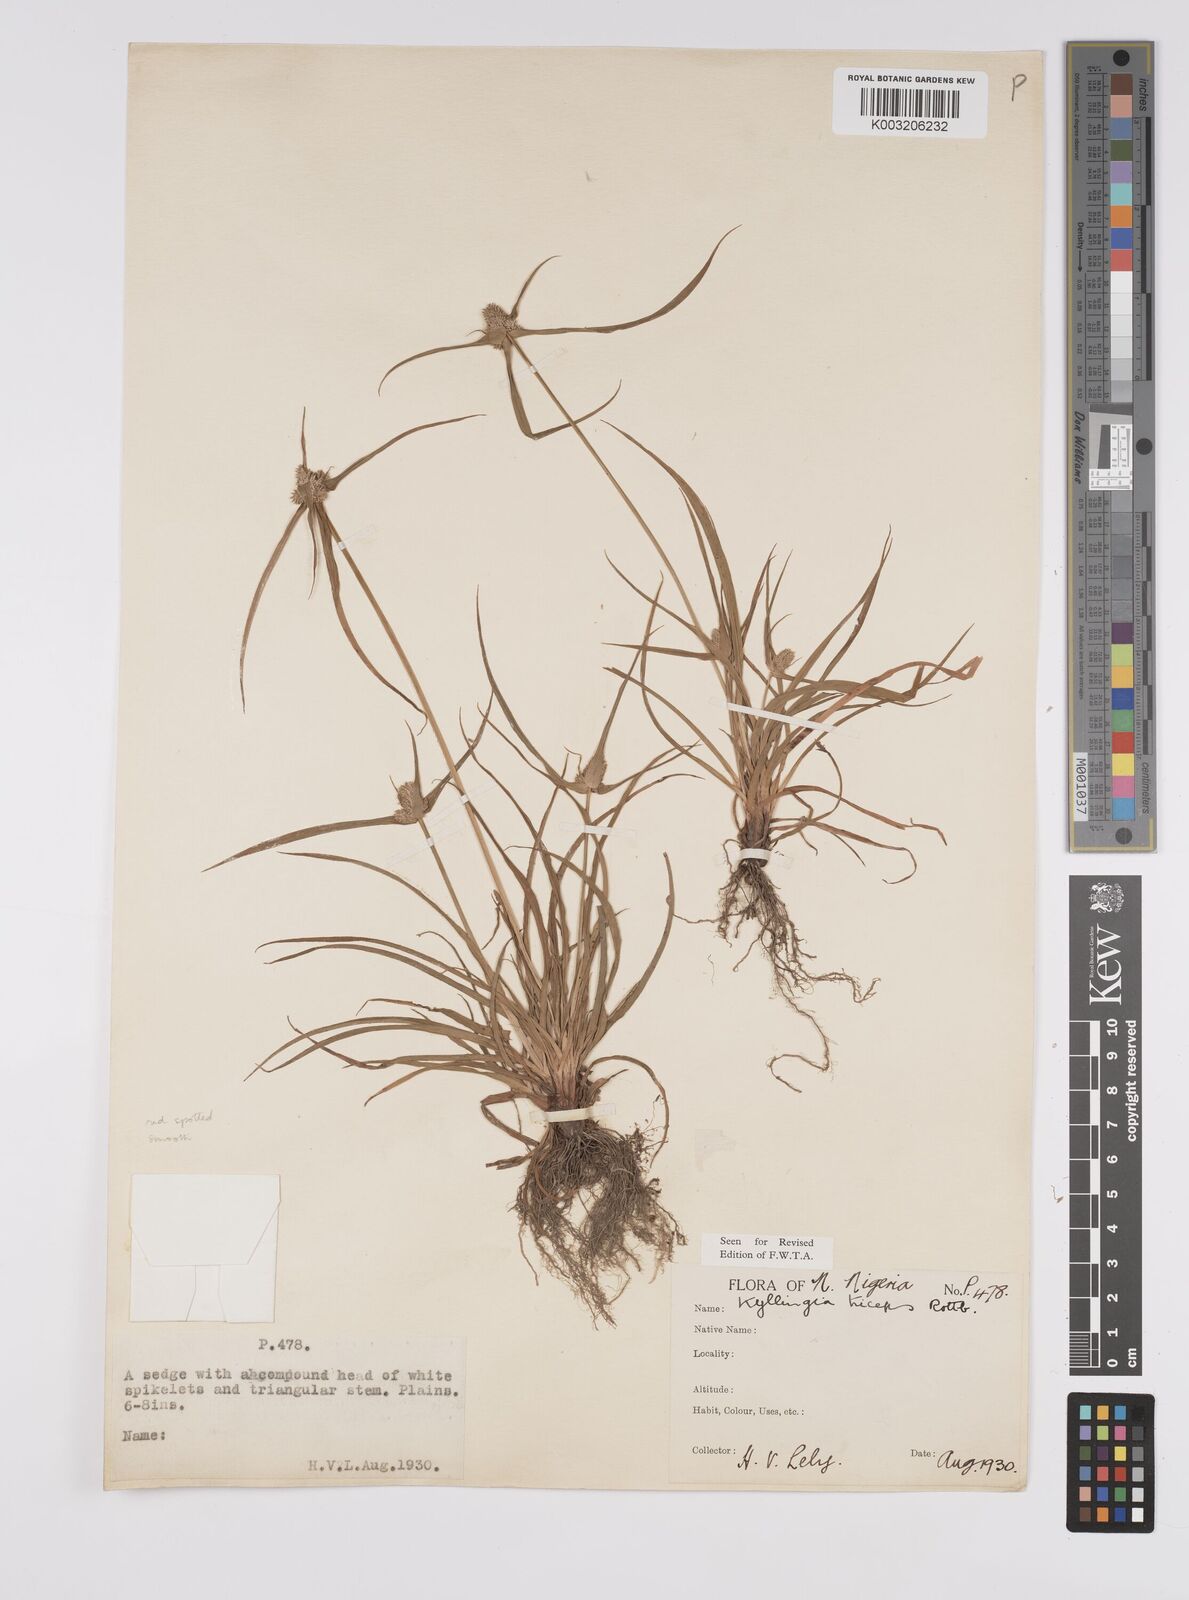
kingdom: Plantae
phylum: Tracheophyta
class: Liliopsida
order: Poales
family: Cyperaceae
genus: Cyperus
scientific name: Cyperus
